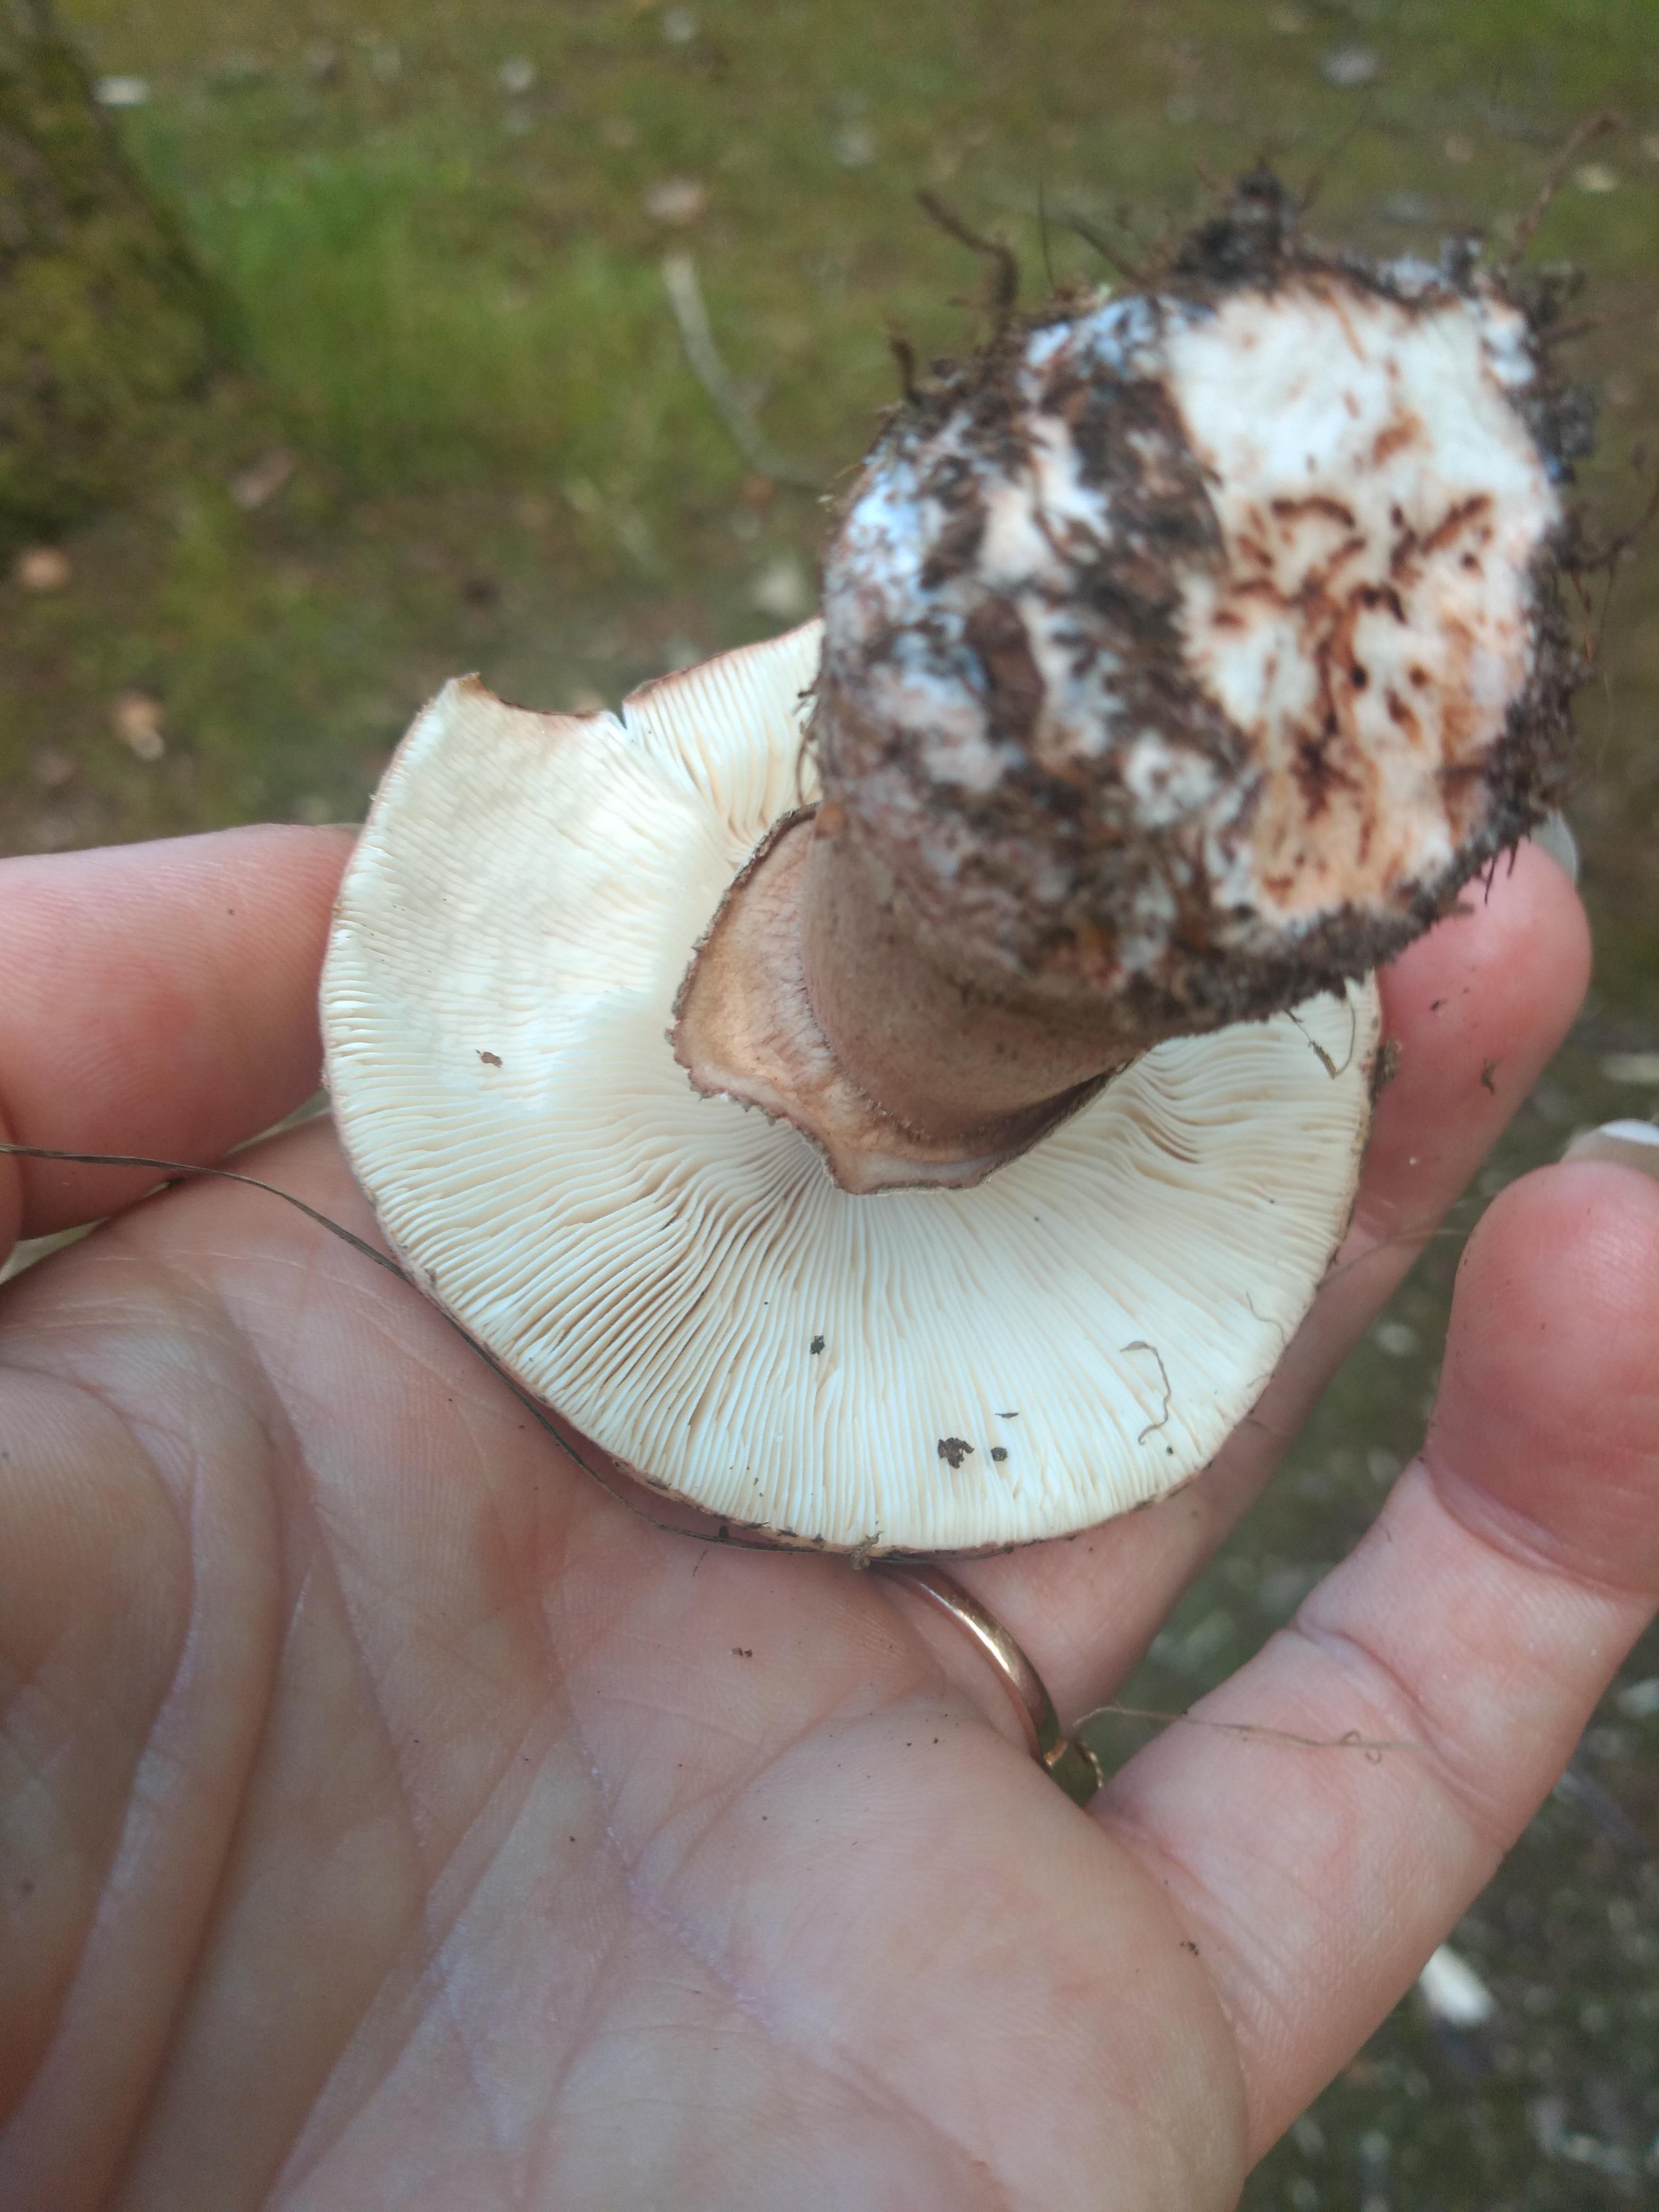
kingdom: Fungi
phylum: Basidiomycota
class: Agaricomycetes
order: Agaricales
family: Amanitaceae
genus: Amanita
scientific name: Amanita rubescens
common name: rødmende fluesvamp
